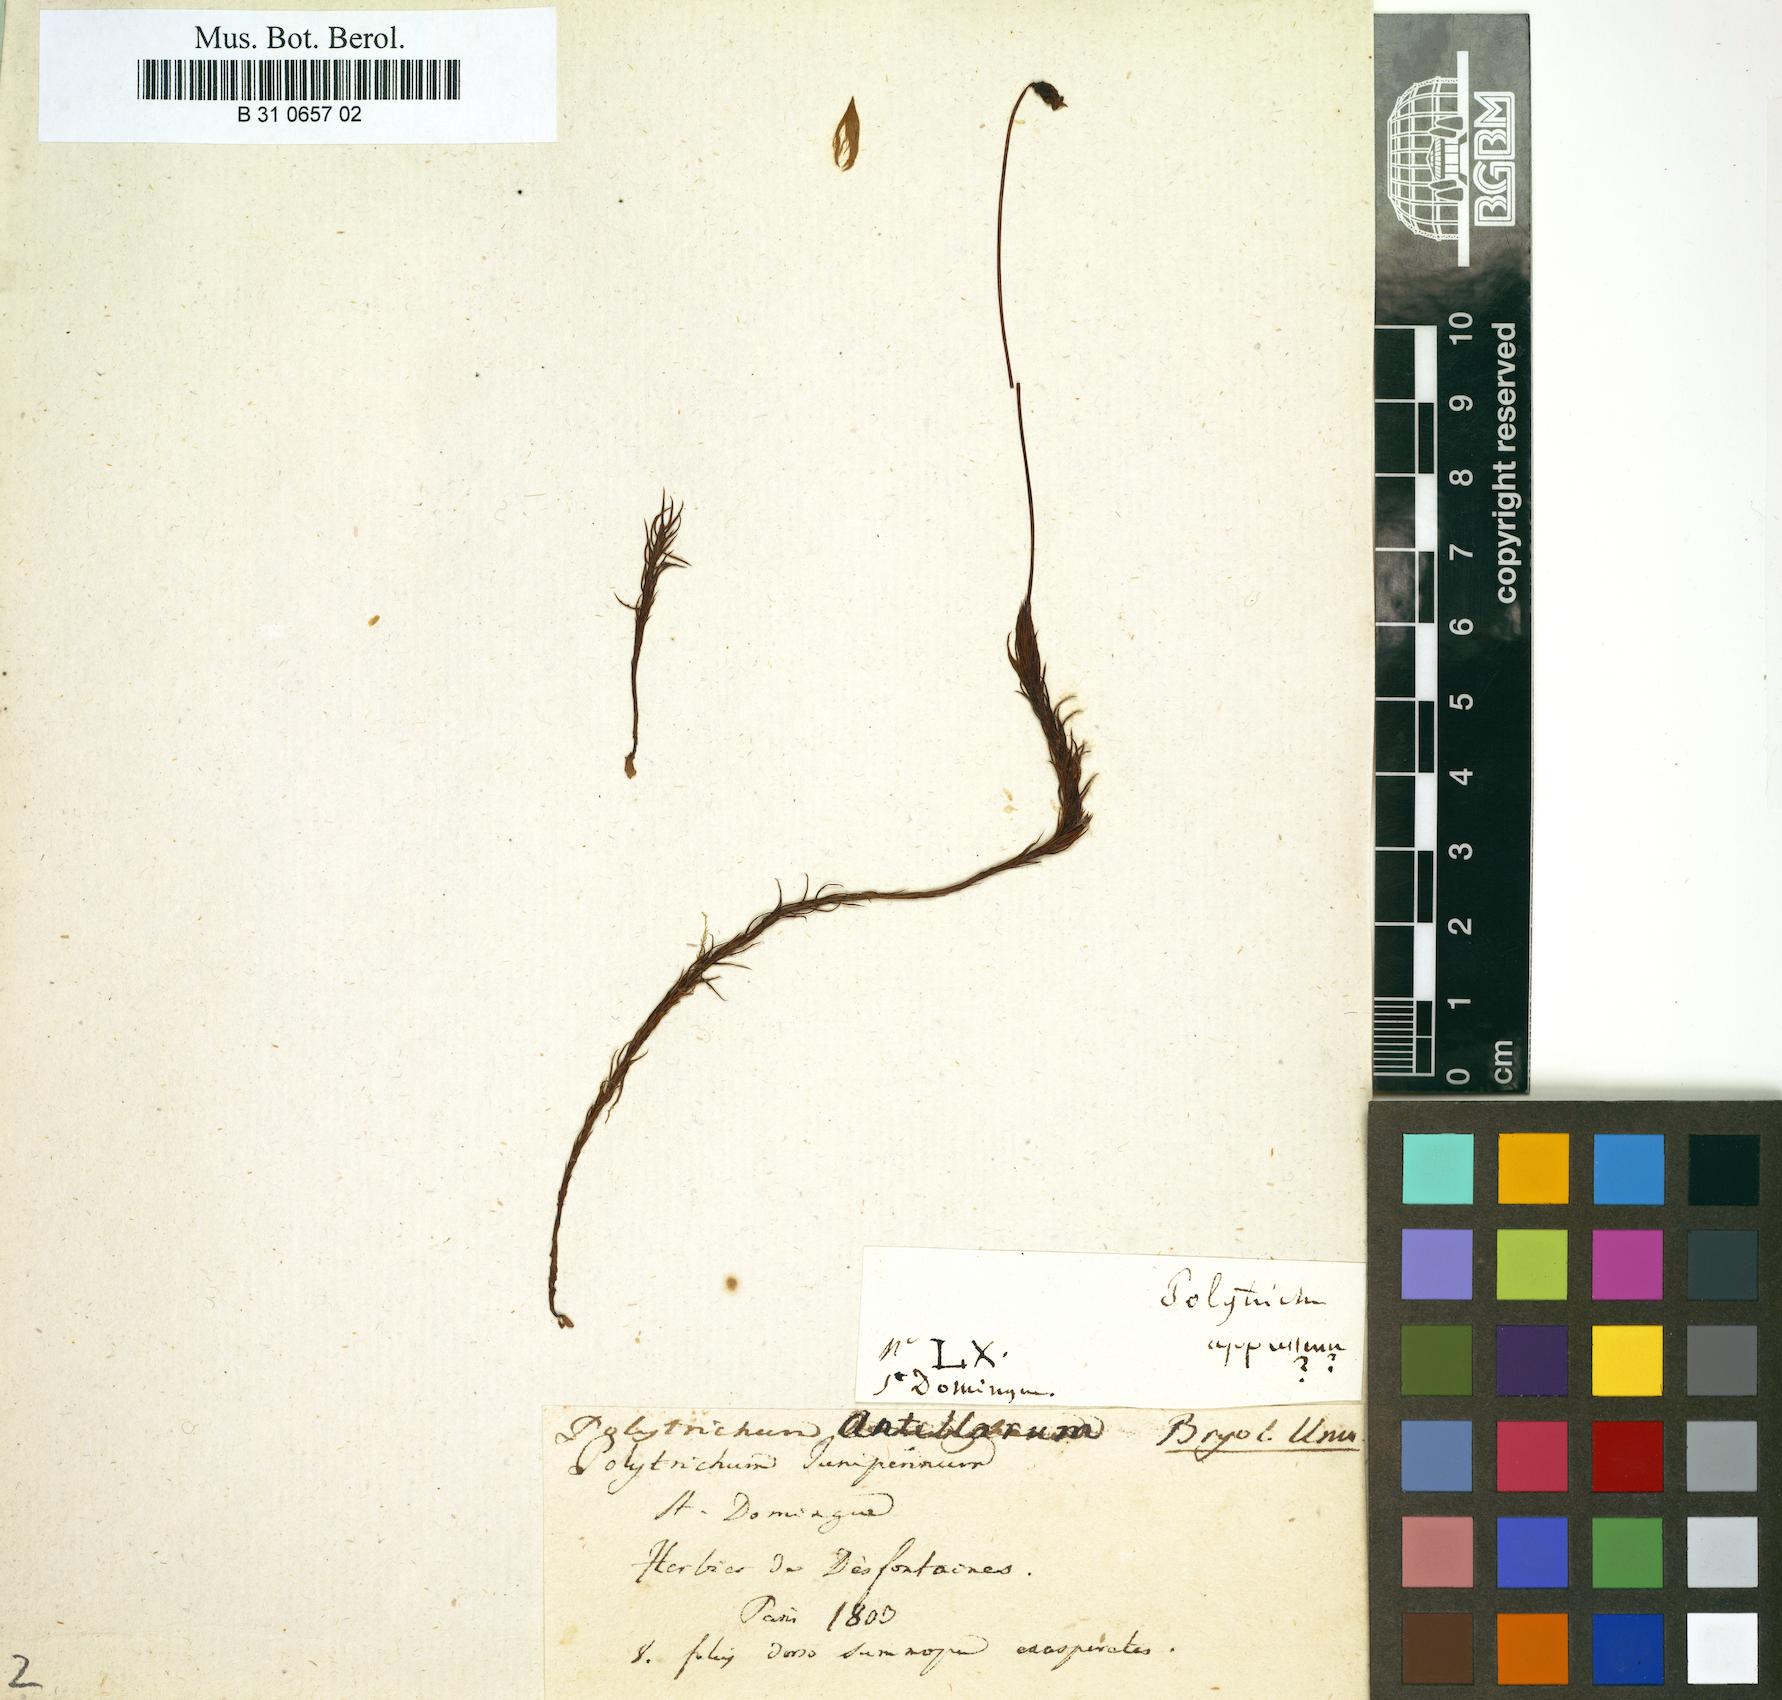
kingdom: Plantae
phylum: Bryophyta
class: Polytrichopsida
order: Polytrichales
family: Polytrichaceae
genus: Polytrichum
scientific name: Polytrichum juniperinum
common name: Juniper haircap moss
